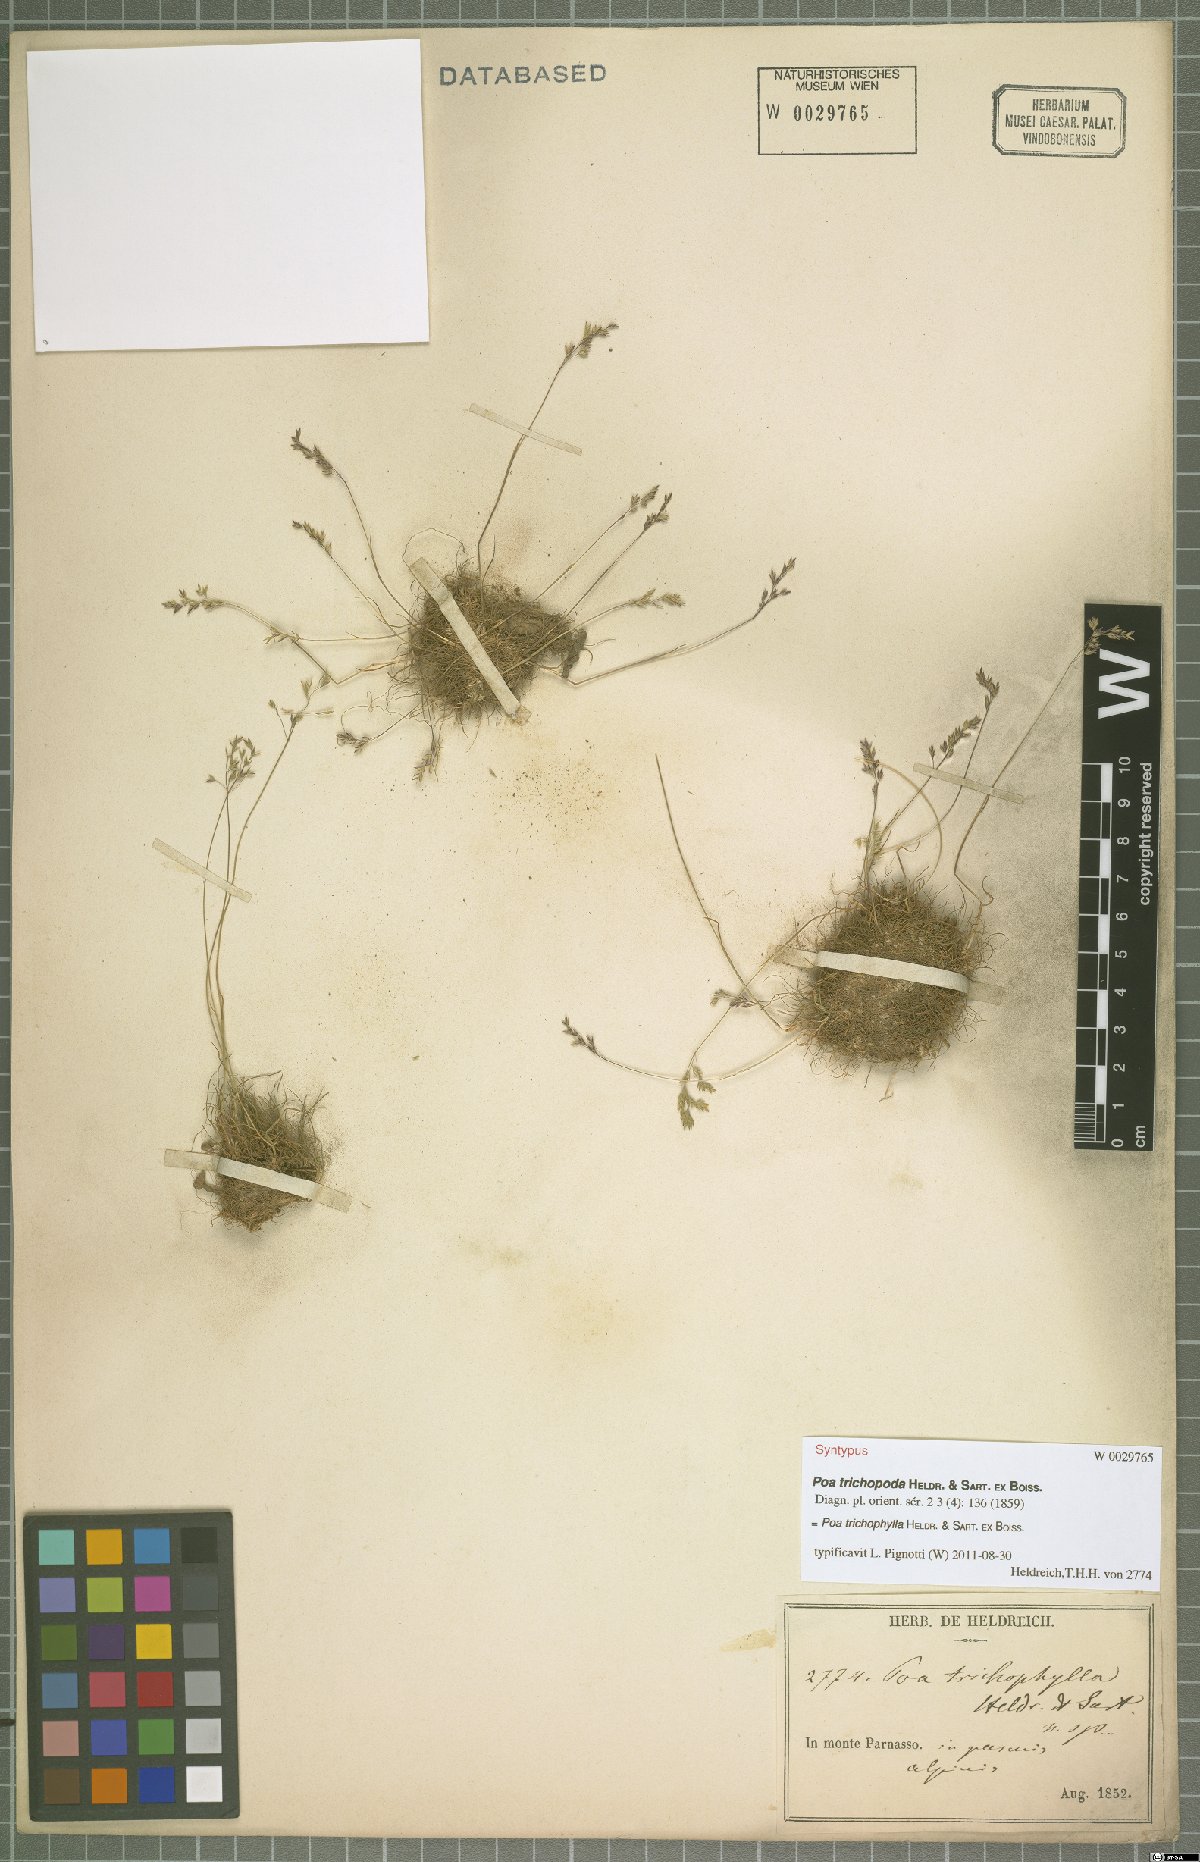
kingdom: Plantae
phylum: Tracheophyta
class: Liliopsida
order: Poales
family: Poaceae
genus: Poa
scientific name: Poa trichophylla
